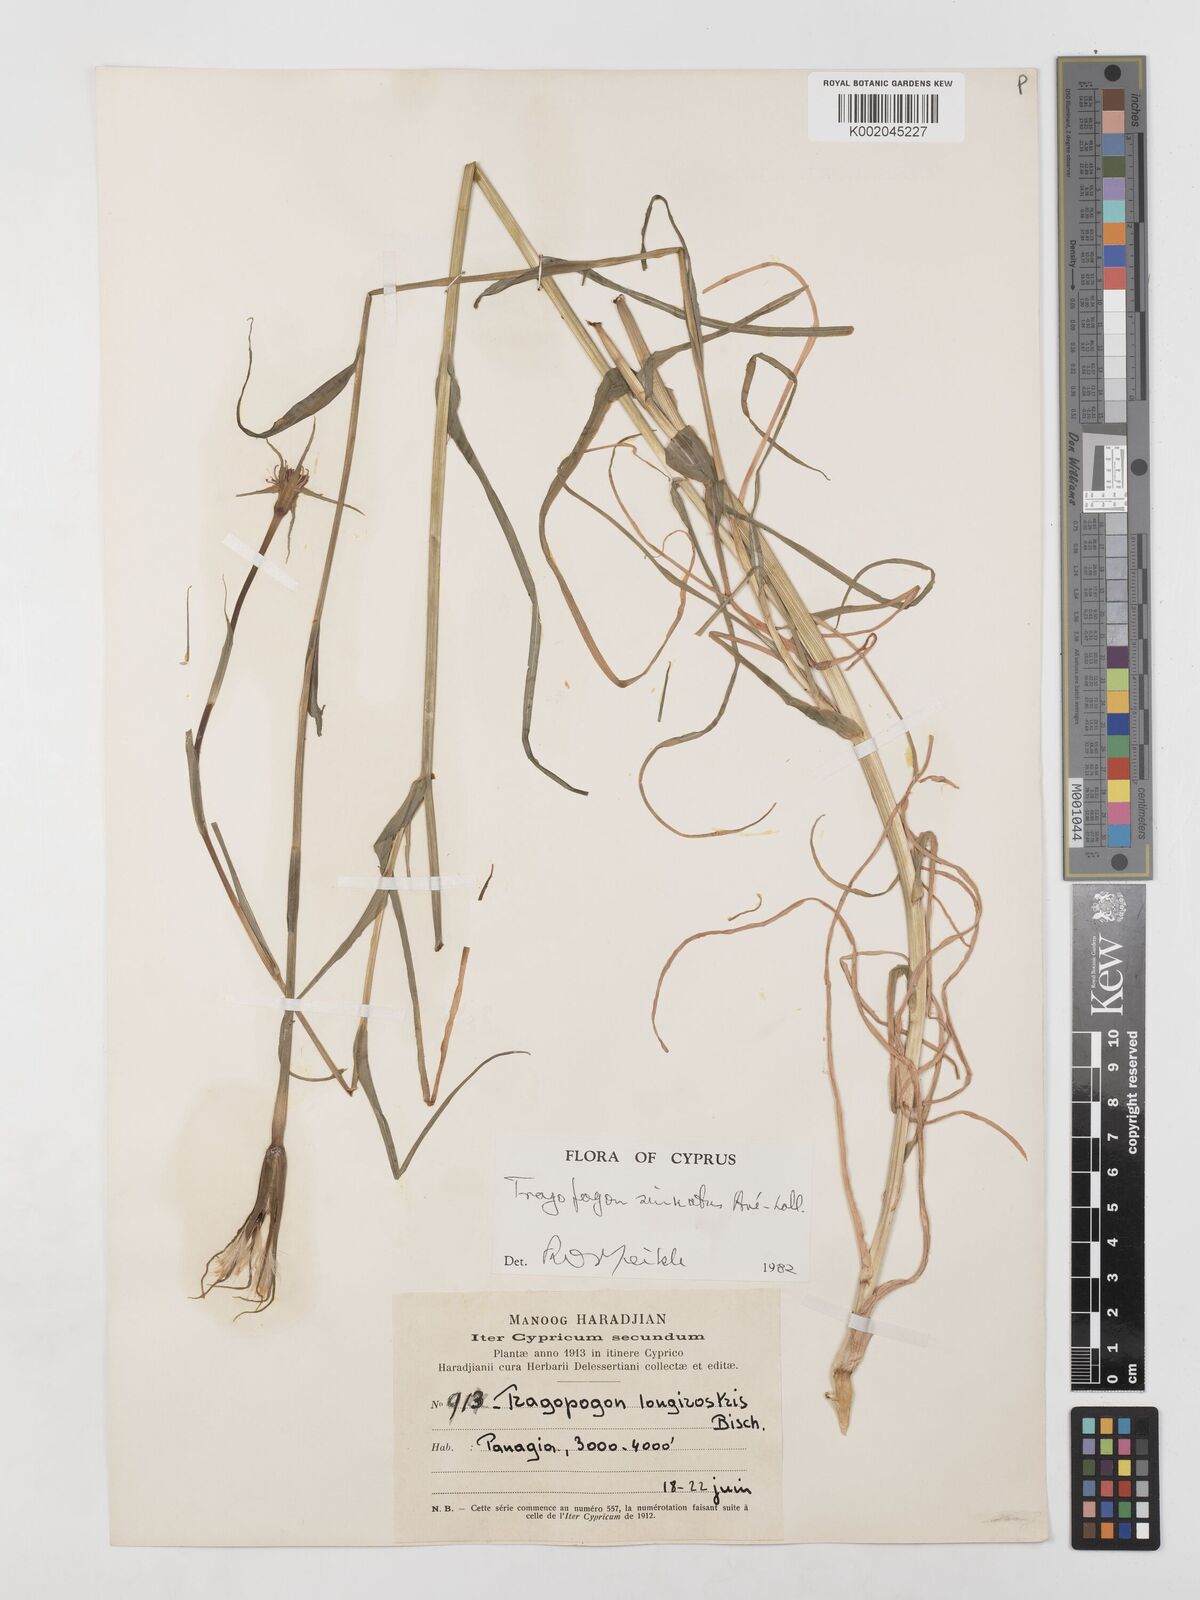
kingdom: Plantae
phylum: Tracheophyta
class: Magnoliopsida
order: Asterales
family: Asteraceae
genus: Tragopogon
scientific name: Tragopogon porrifolius
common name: Salsify
